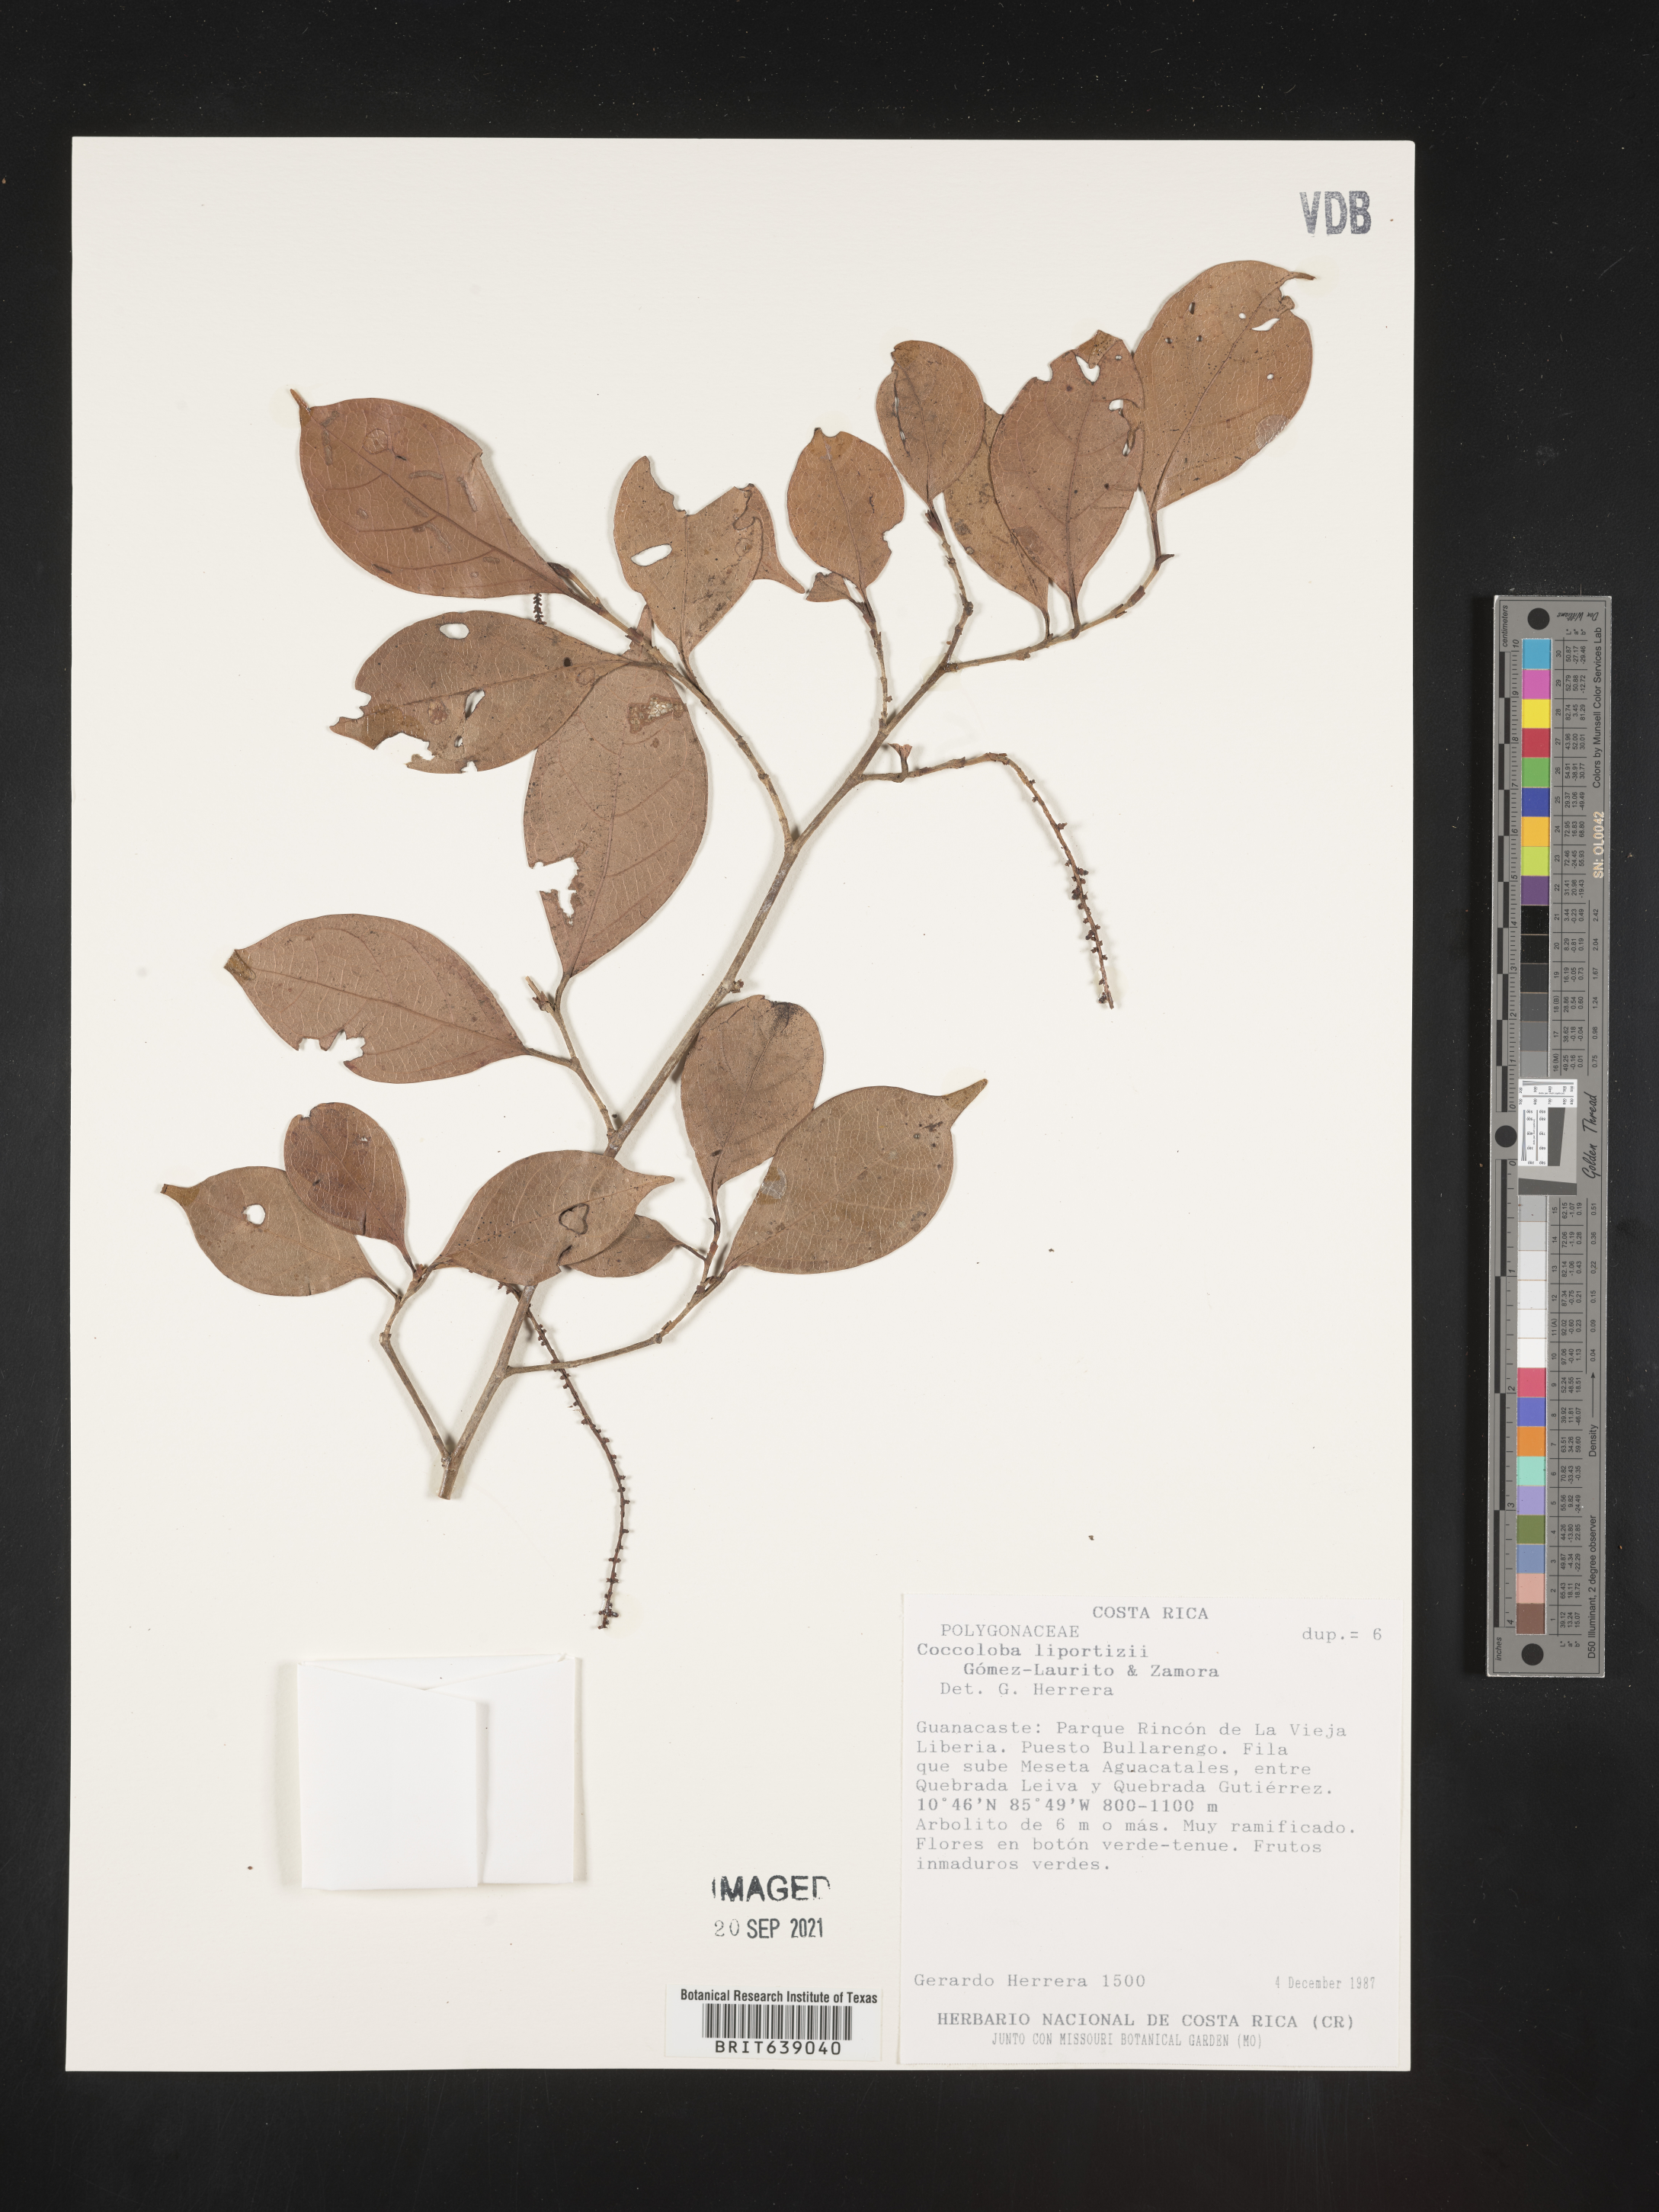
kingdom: Plantae
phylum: Tracheophyta
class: Magnoliopsida
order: Caryophyllales
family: Polygonaceae
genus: Coccoloba
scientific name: Coccoloba
